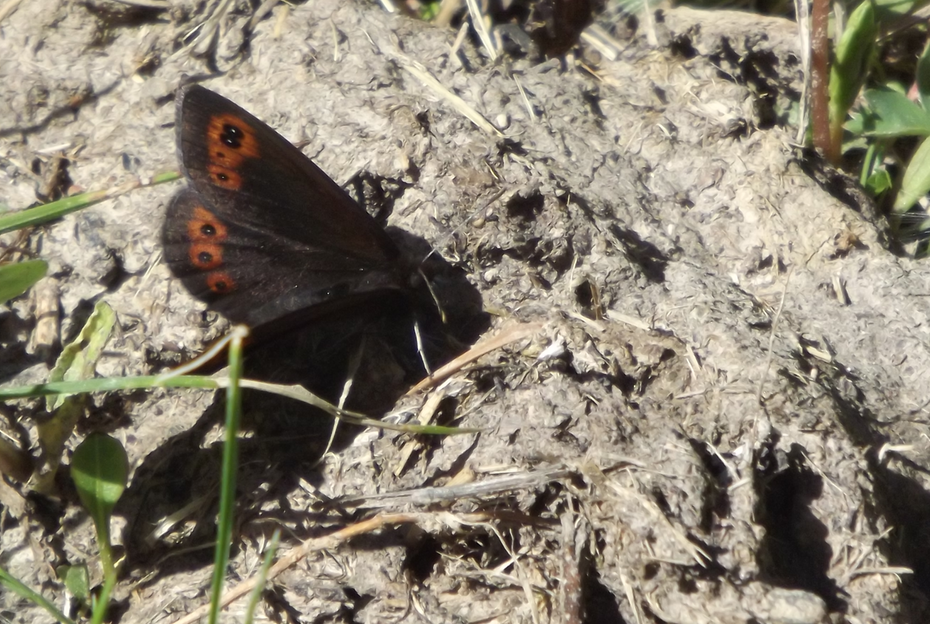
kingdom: Animalia
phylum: Arthropoda
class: Insecta
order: Lepidoptera
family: Nymphalidae
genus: Erebia
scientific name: Erebia epipsodea
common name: Common Alpine
